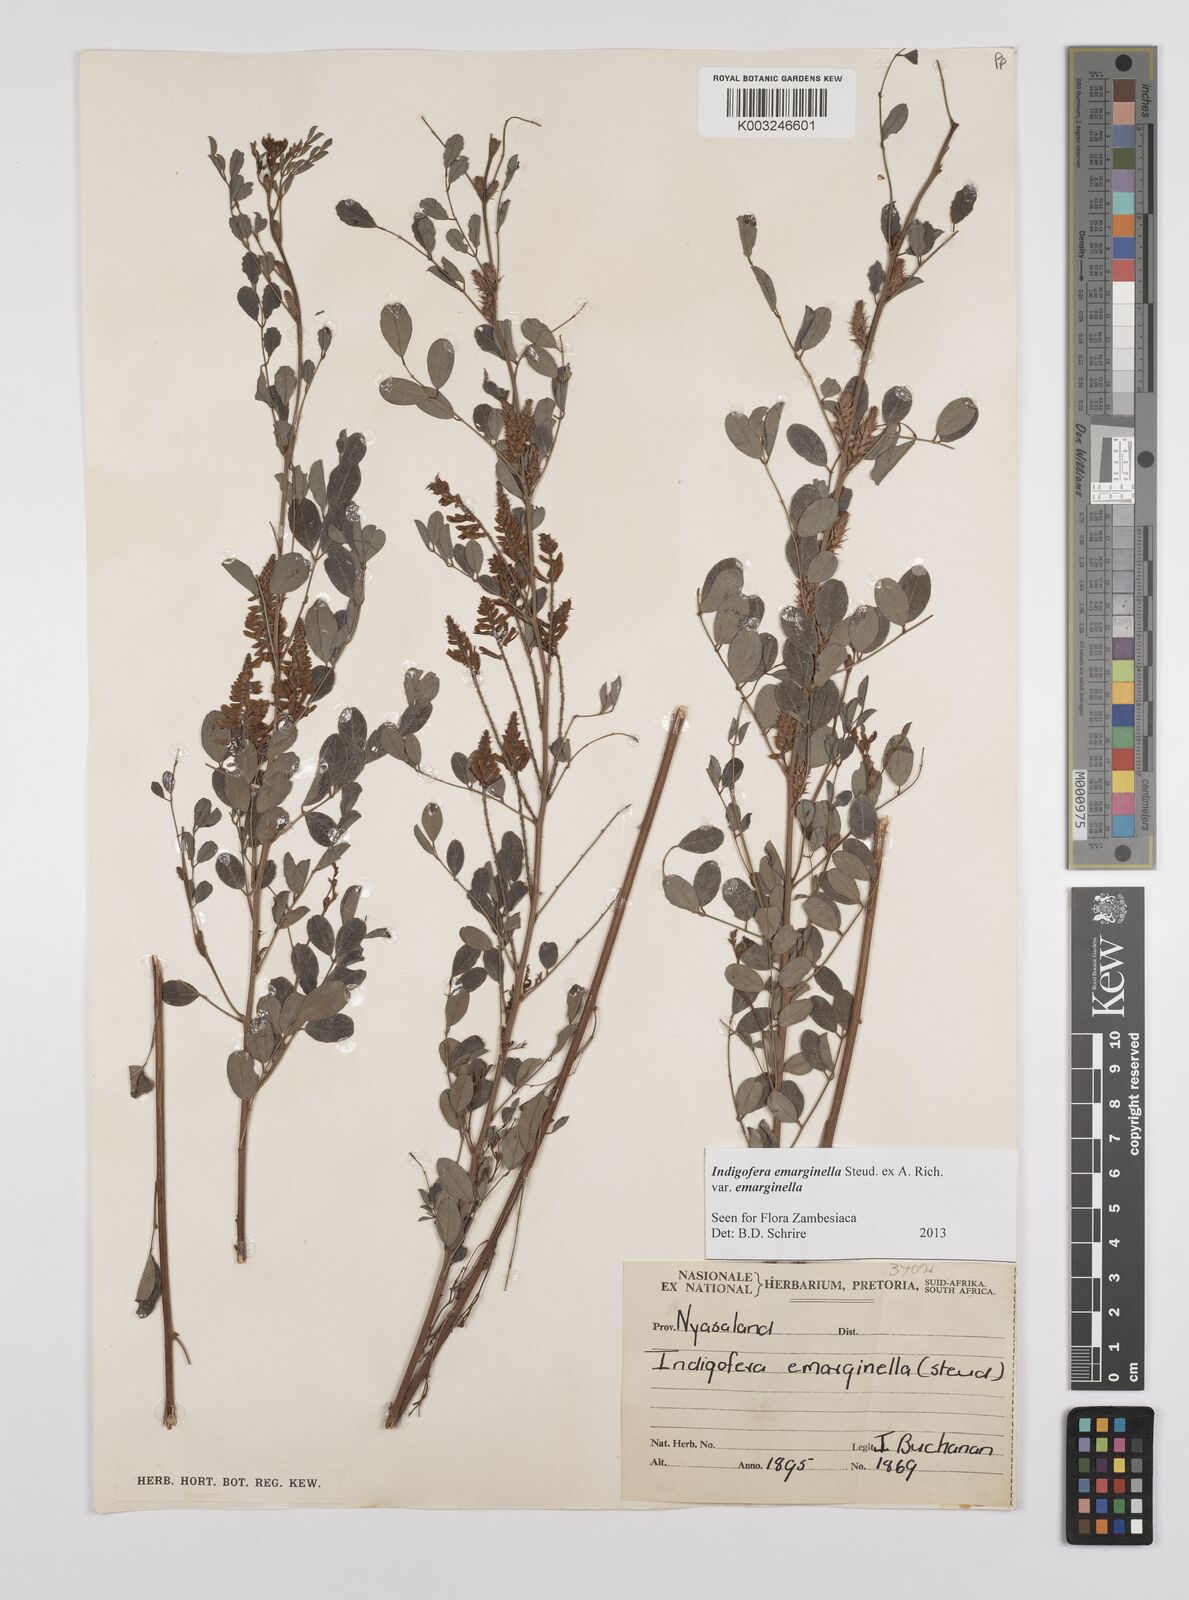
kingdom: Plantae
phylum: Tracheophyta
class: Magnoliopsida
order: Fabales
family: Fabaceae
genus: Indigofera
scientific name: Indigofera emarginella
